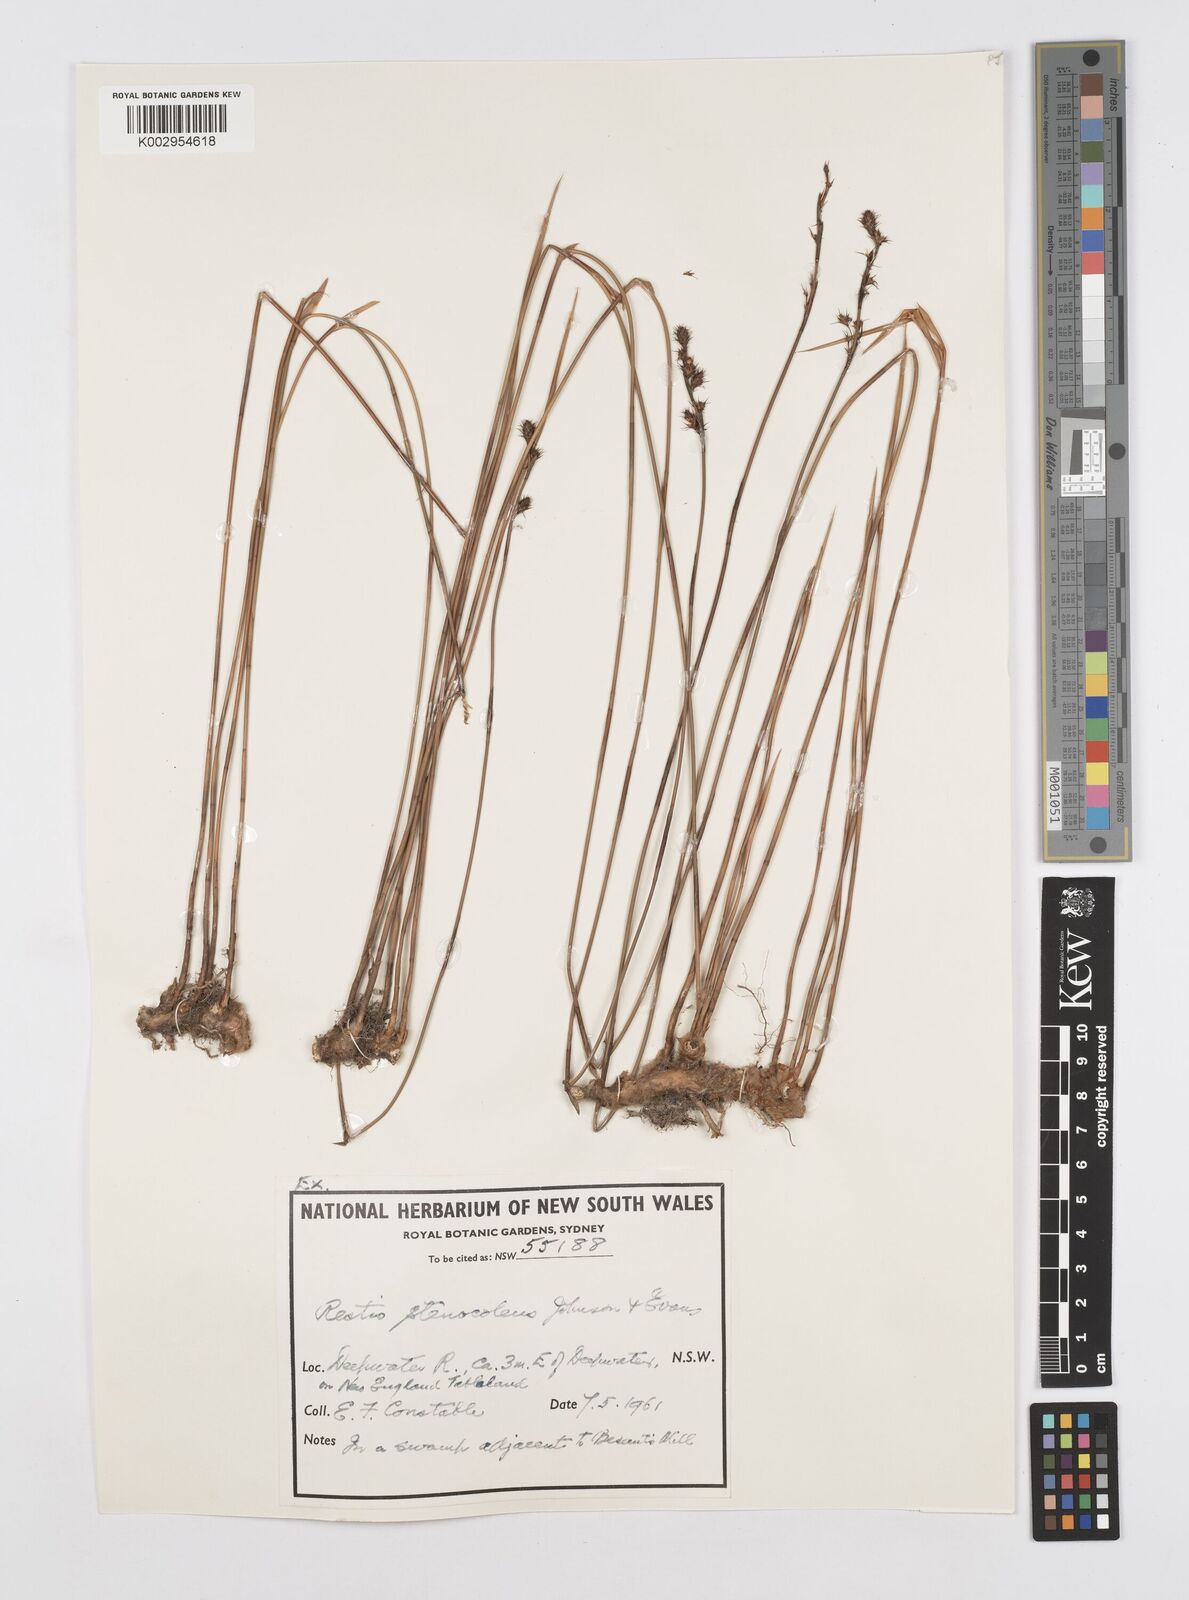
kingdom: Plantae
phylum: Tracheophyta
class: Liliopsida
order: Poales
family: Restionaceae
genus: Baloskion
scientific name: Baloskion stenocoleum
